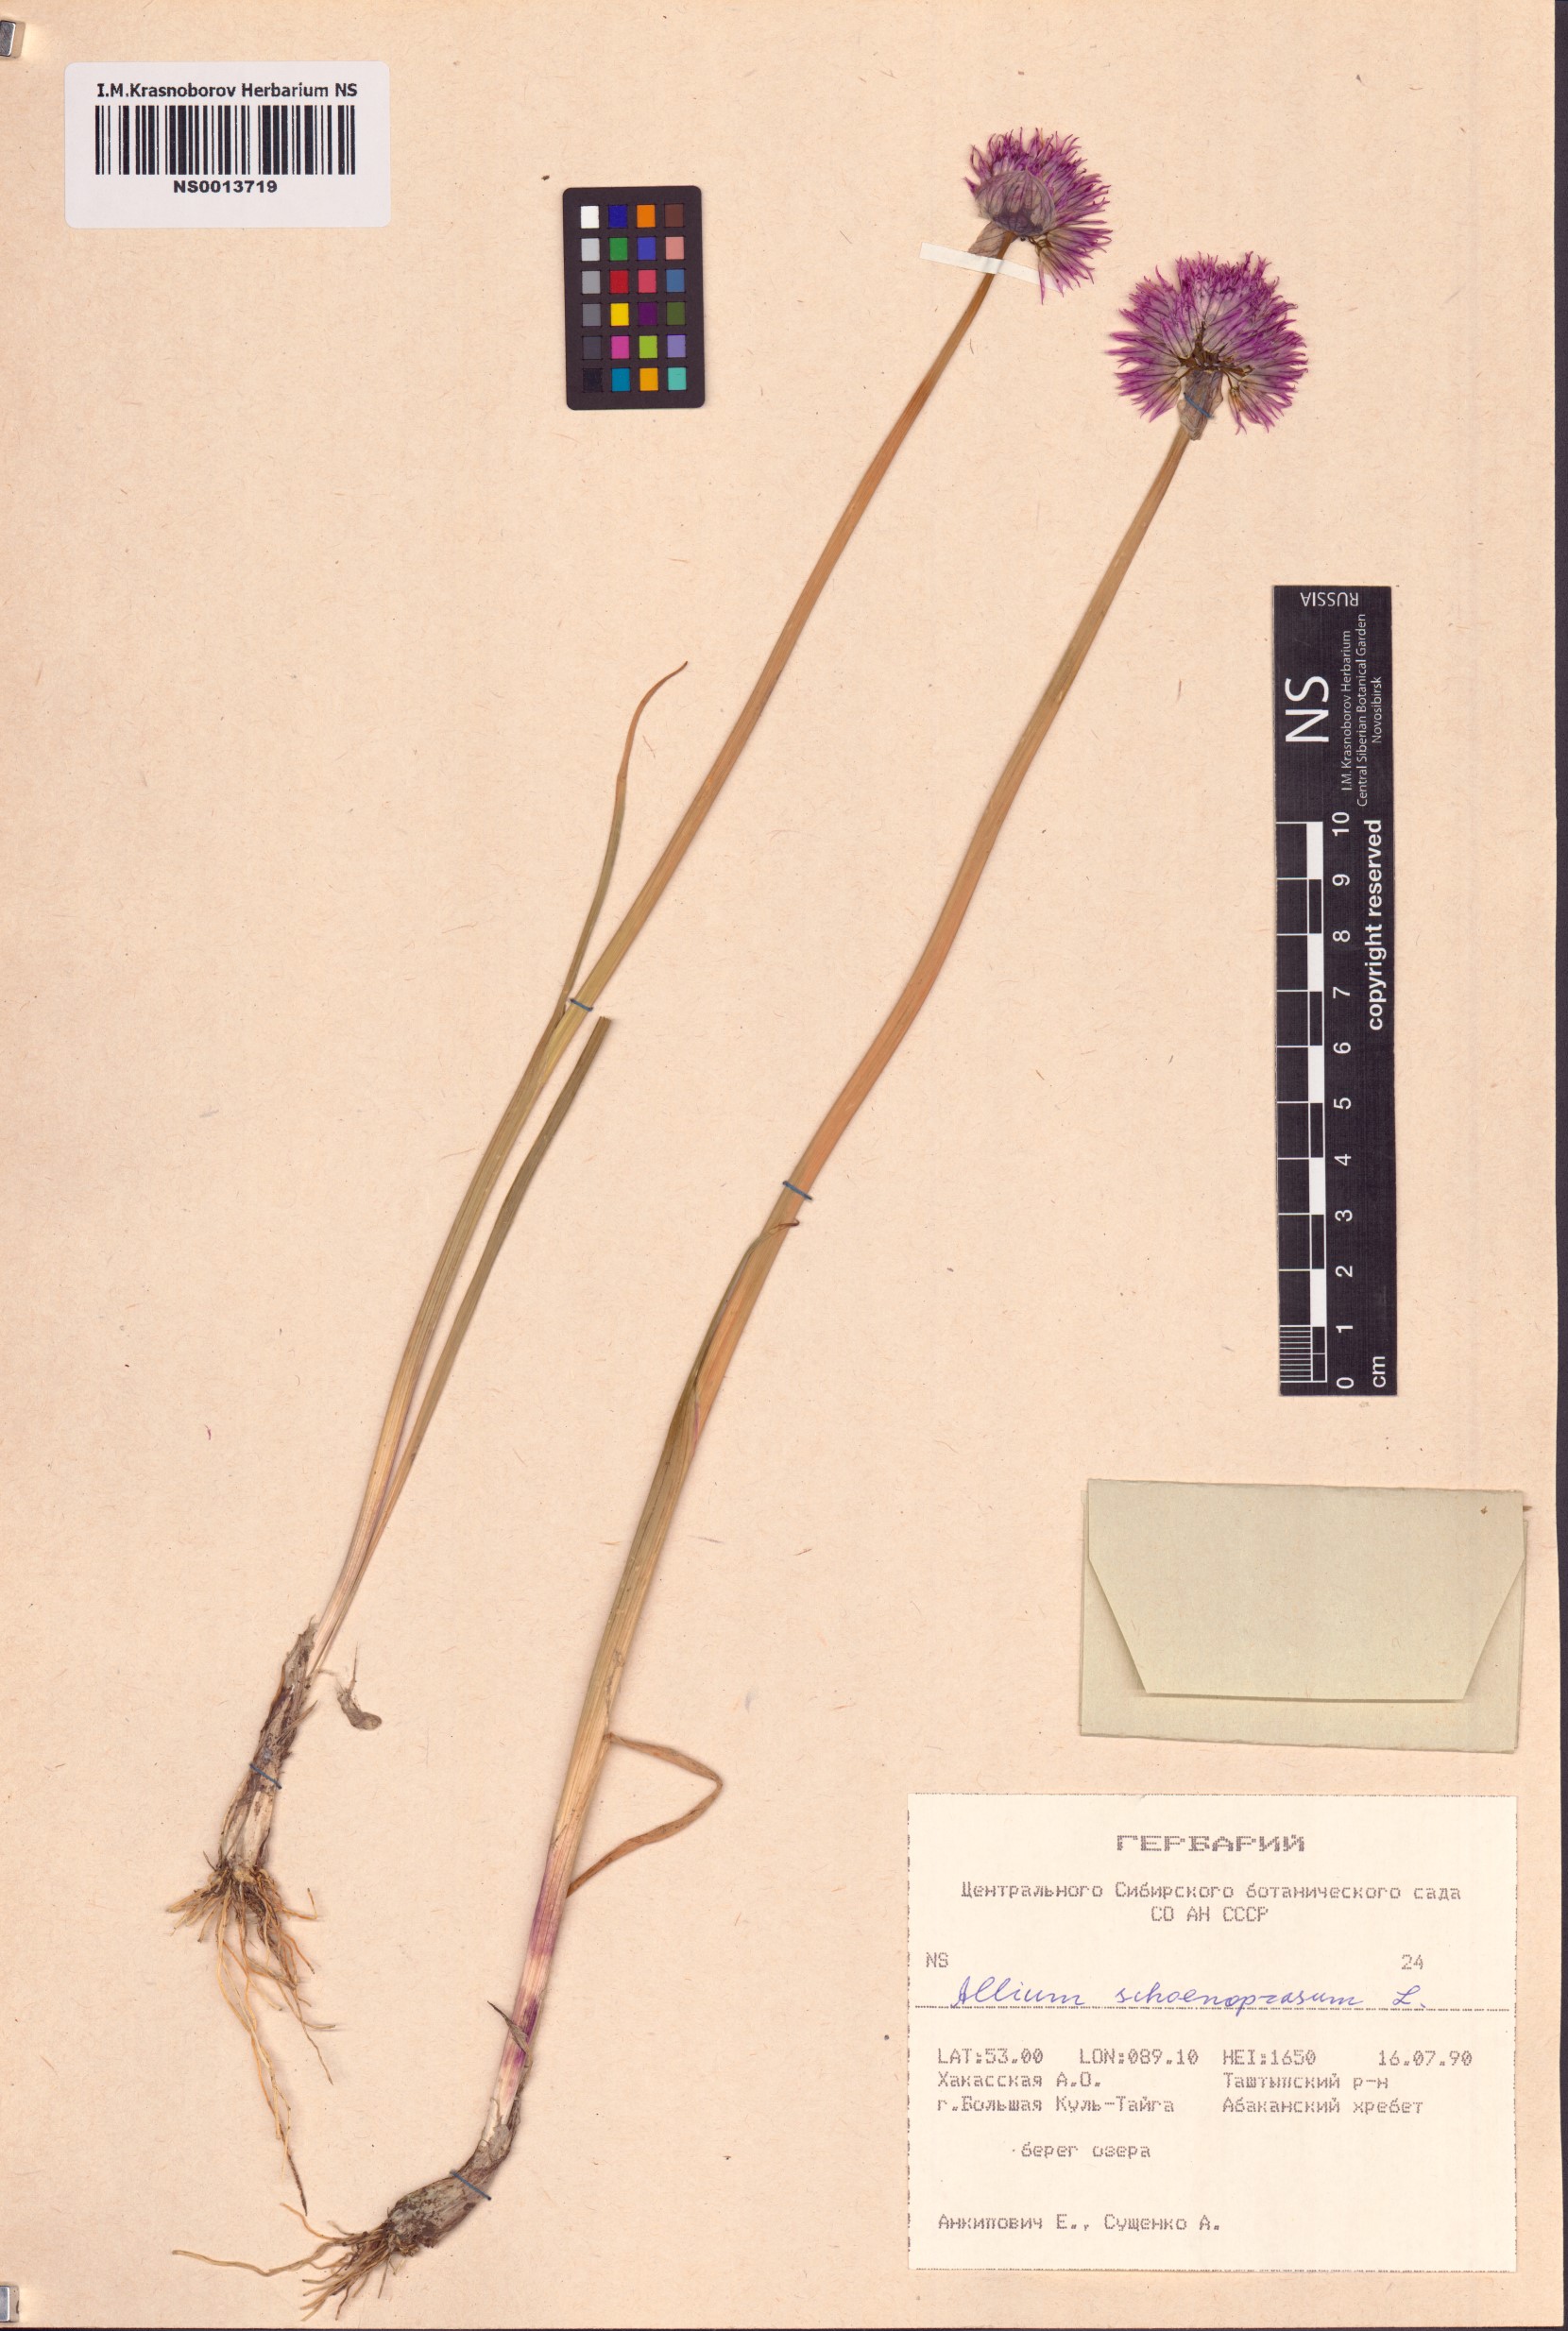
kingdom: Plantae
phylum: Tracheophyta
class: Liliopsida
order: Asparagales
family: Amaryllidaceae
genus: Allium
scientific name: Allium schoenoprasum
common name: Chives
